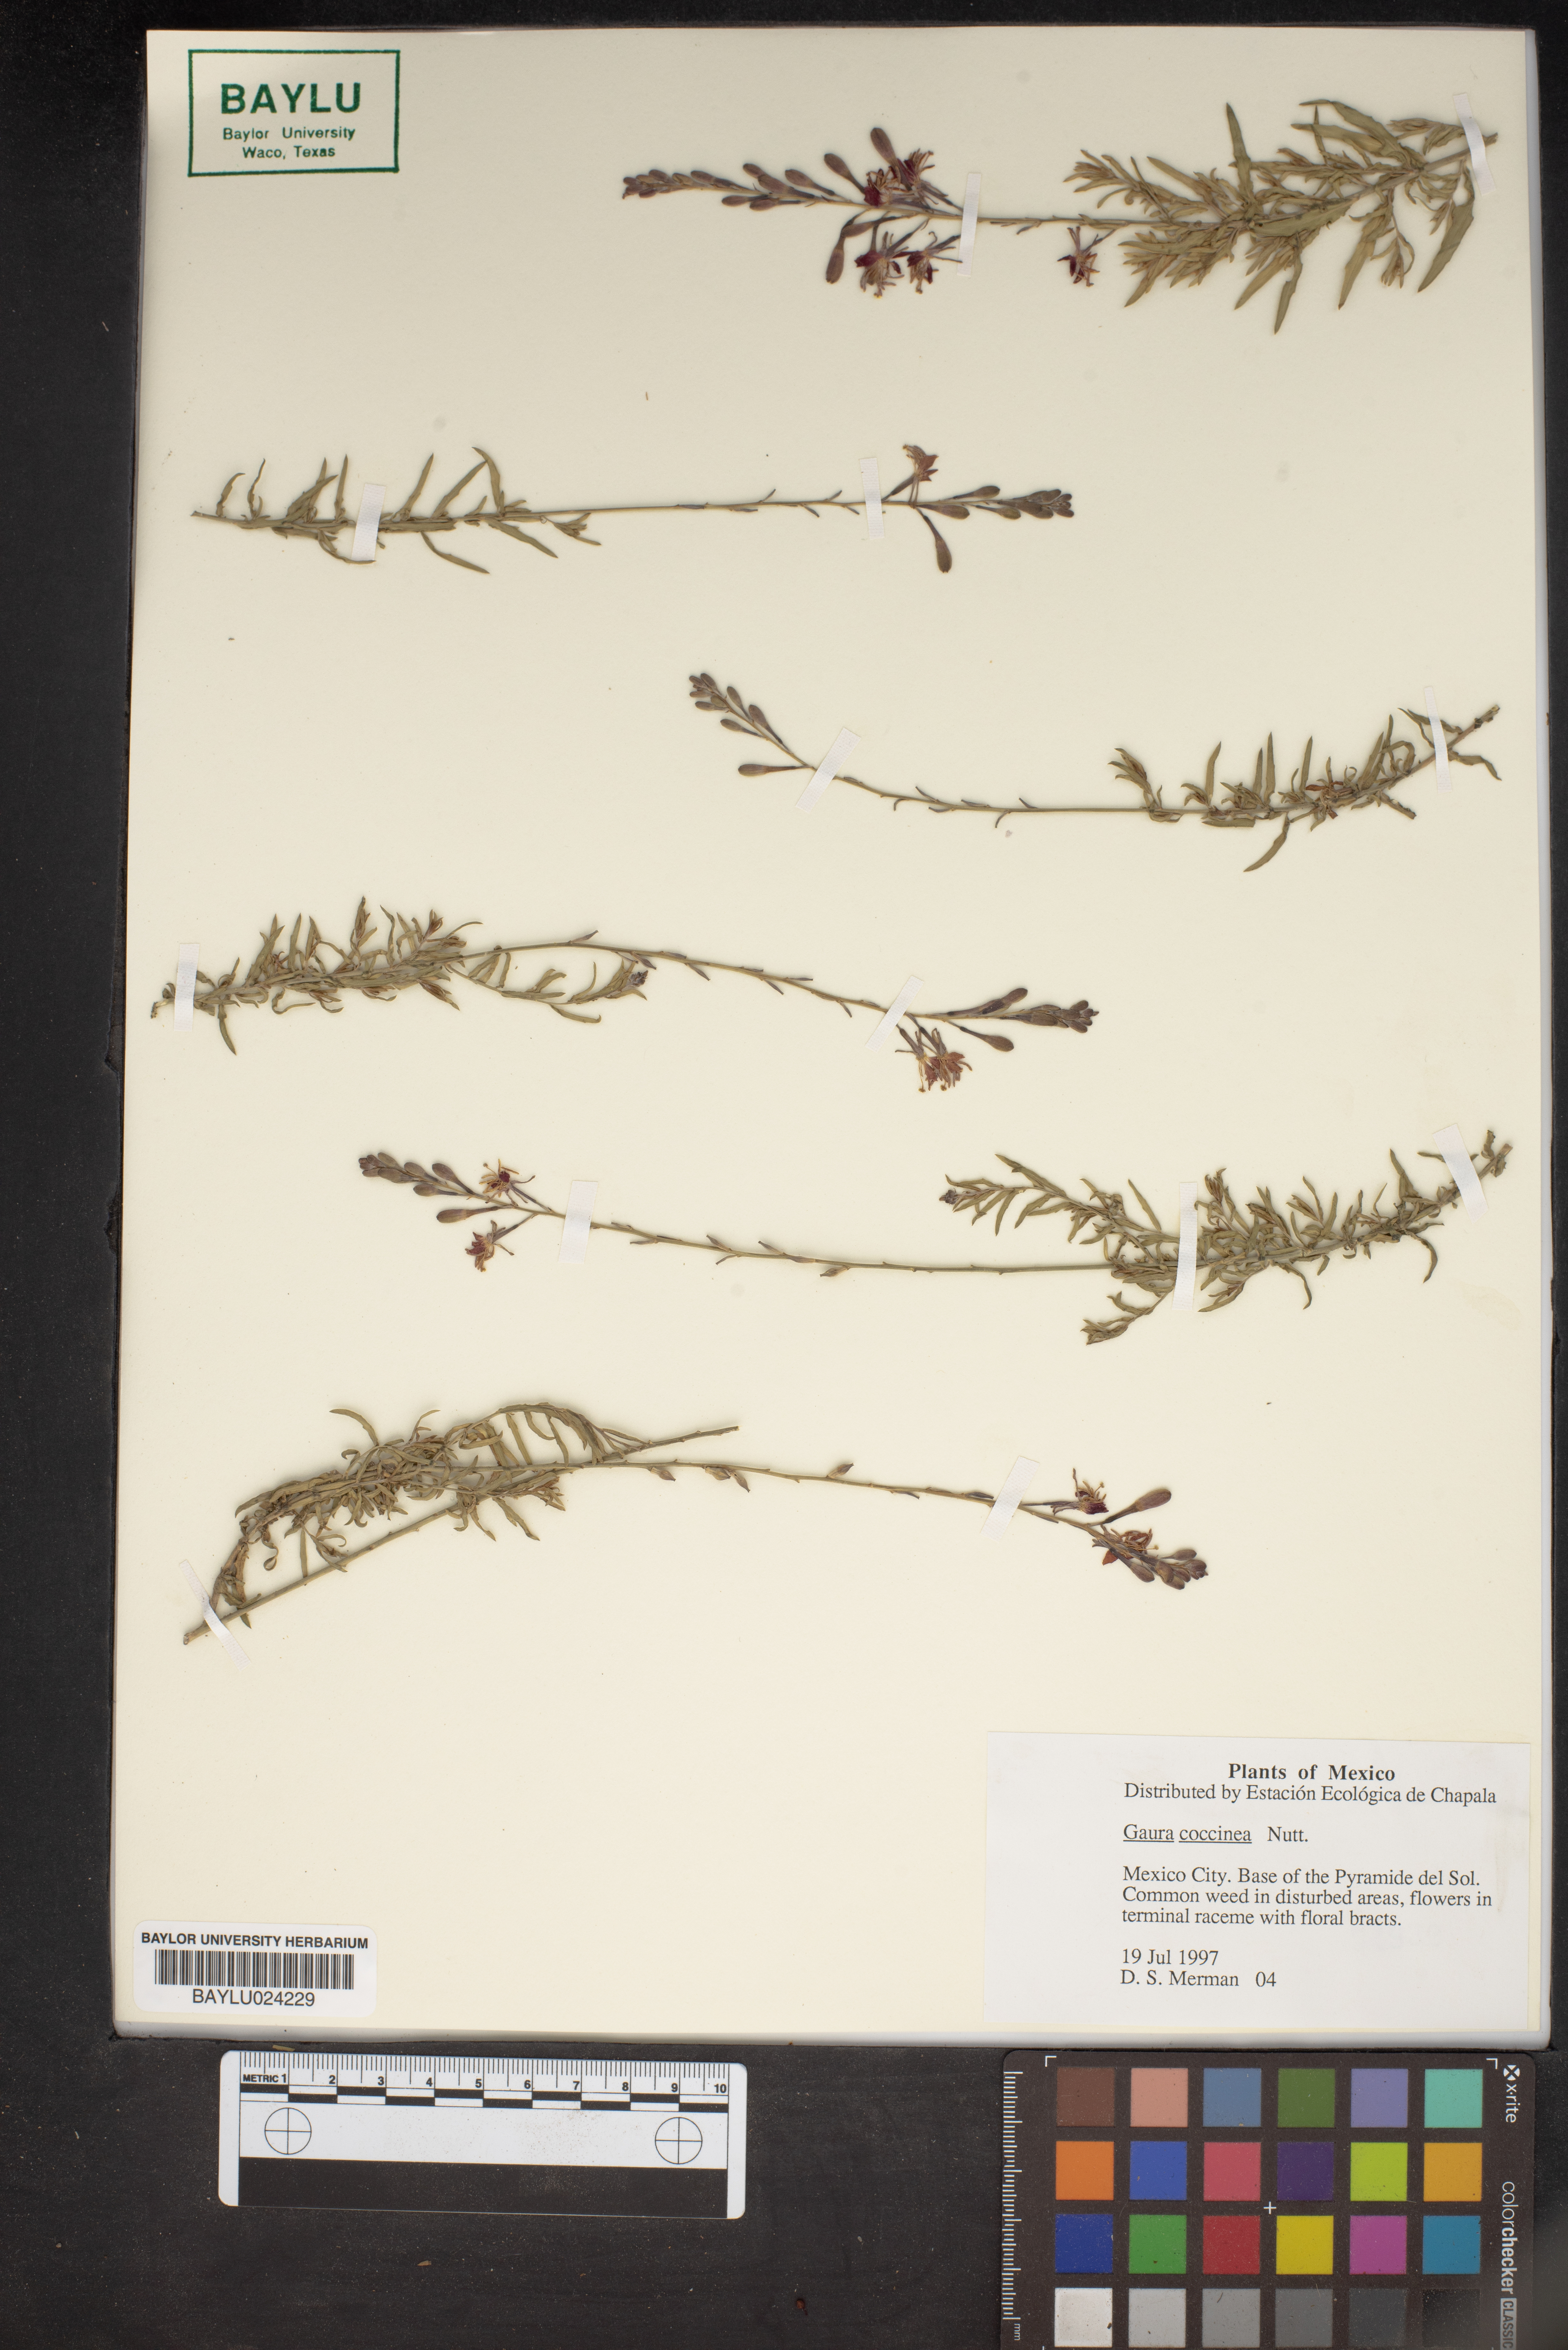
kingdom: Plantae
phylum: Tracheophyta
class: Magnoliopsida
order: Myrtales
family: Onagraceae
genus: Oenothera
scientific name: Oenothera suffrutescens
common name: Scarlet beeblossom
